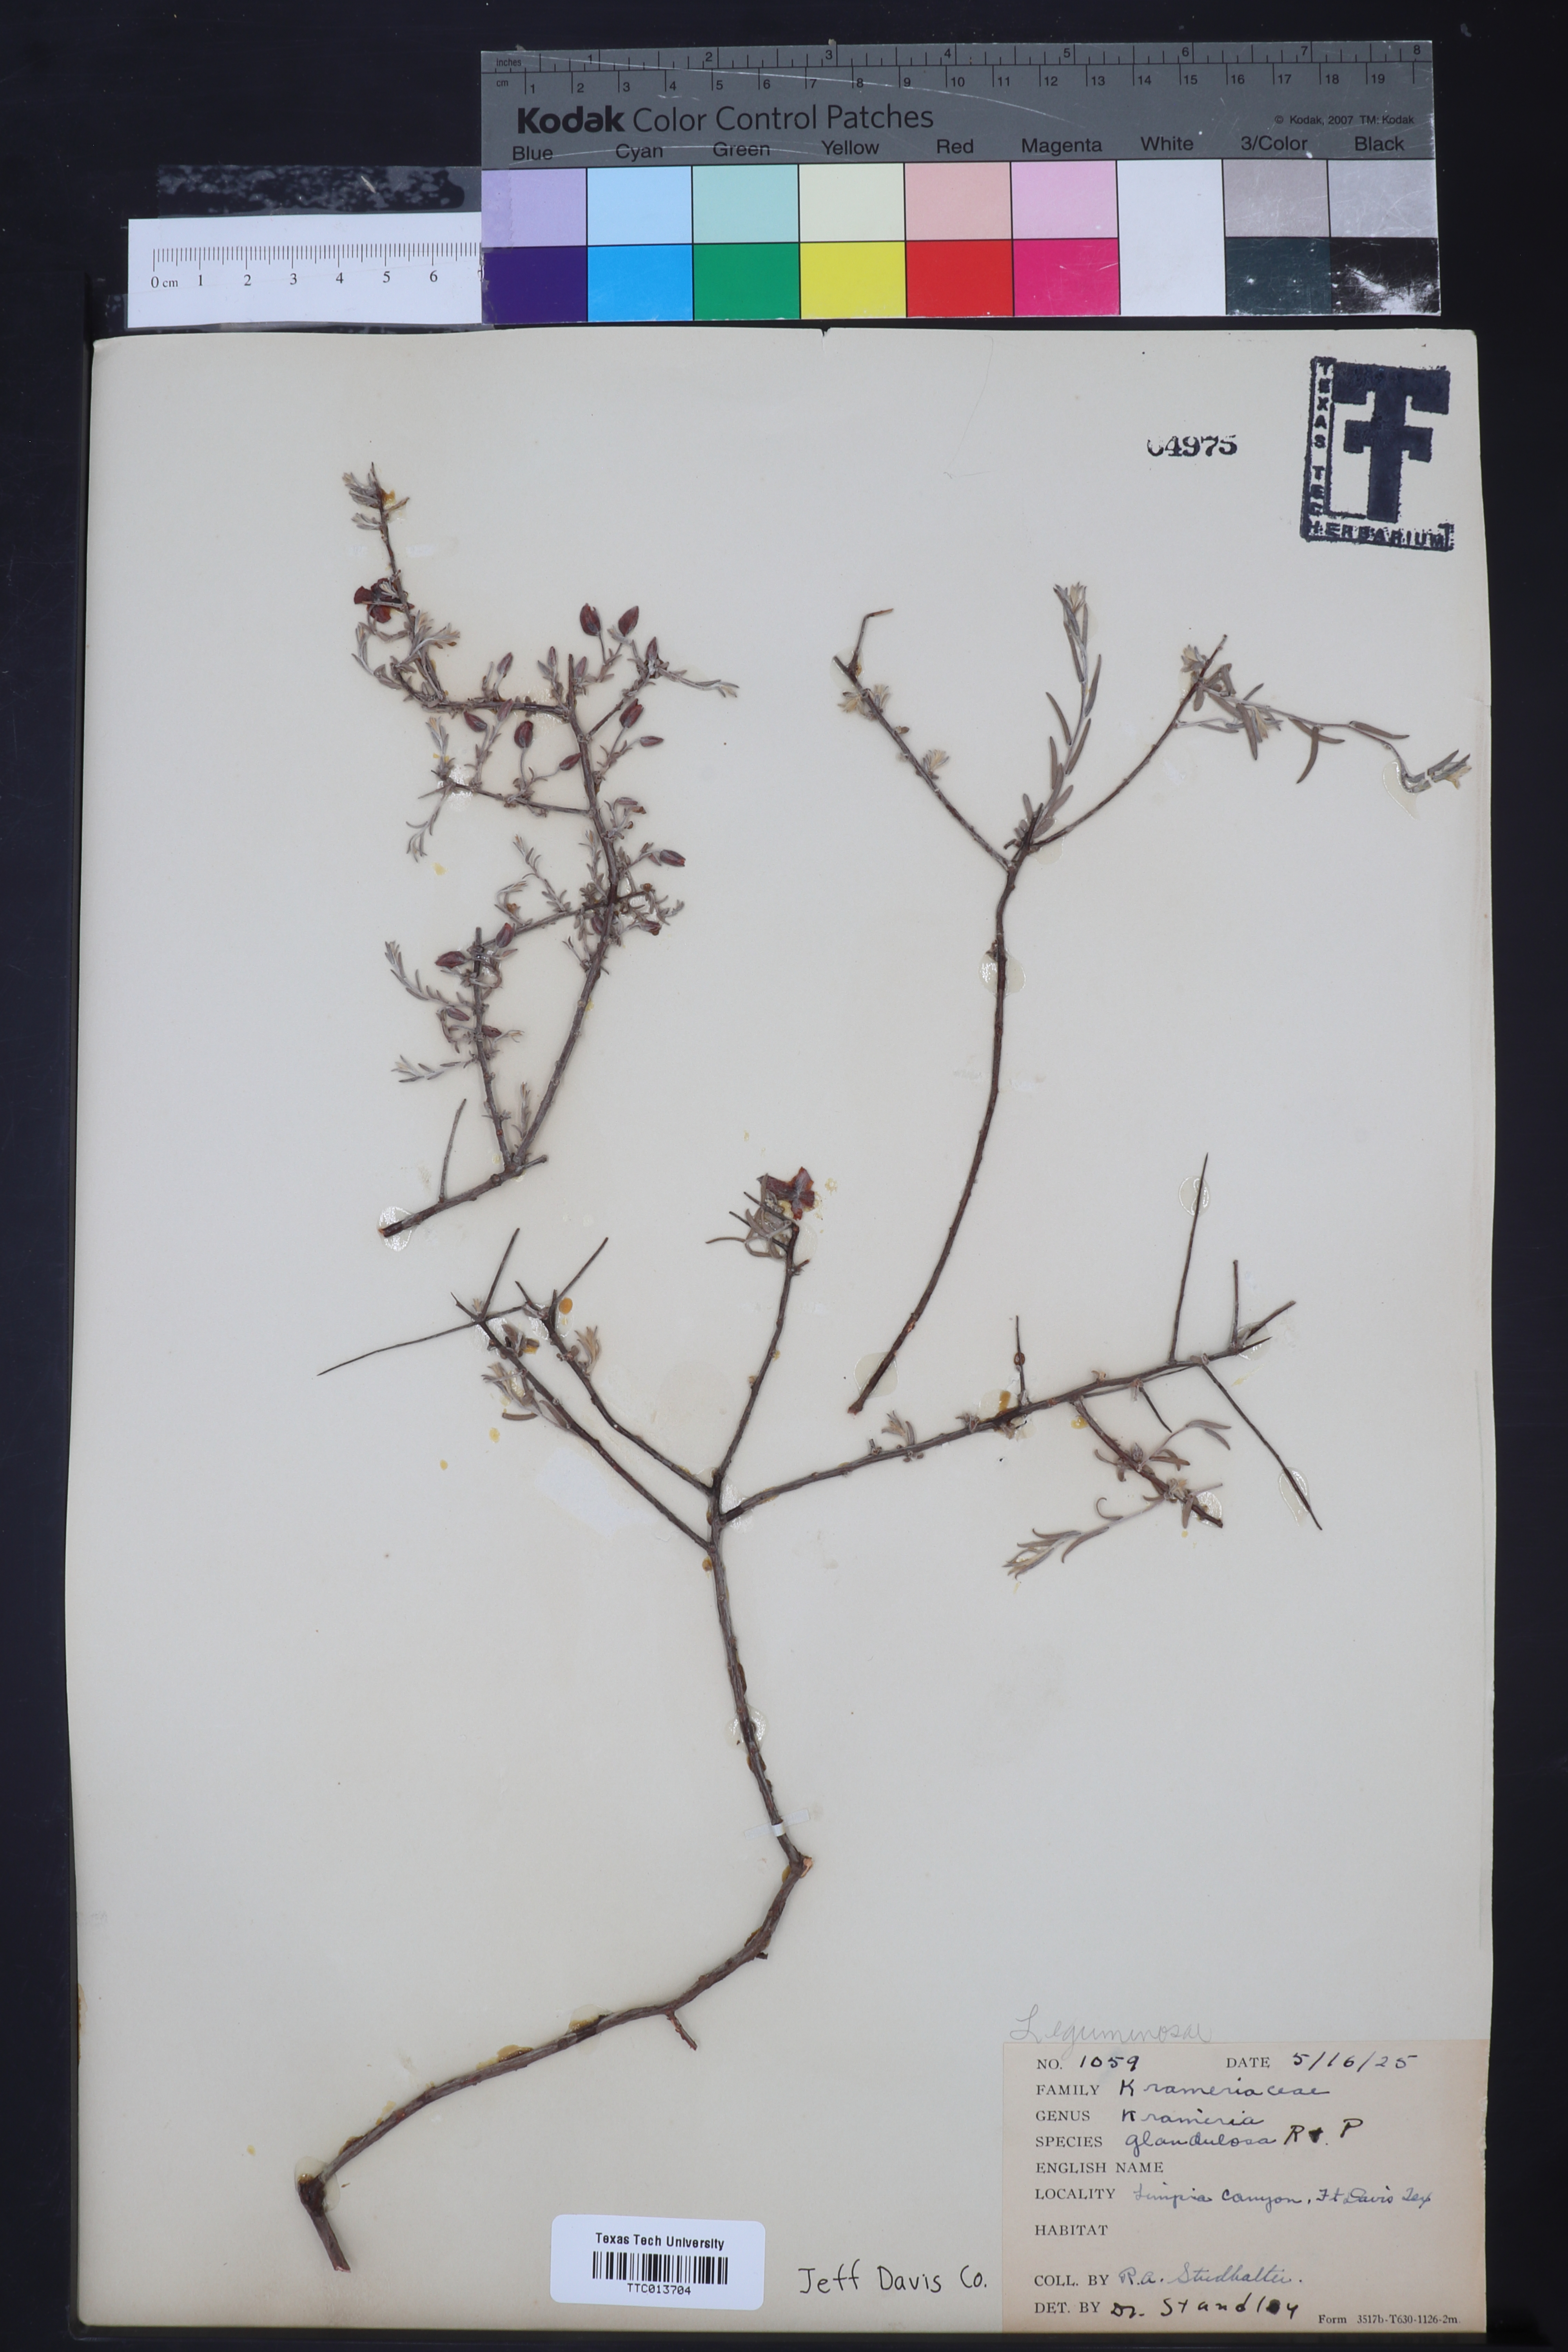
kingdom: Plantae
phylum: Tracheophyta
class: Magnoliopsida
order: Zygophyllales
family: Krameriaceae
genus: Krameria
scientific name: Krameria erecta
